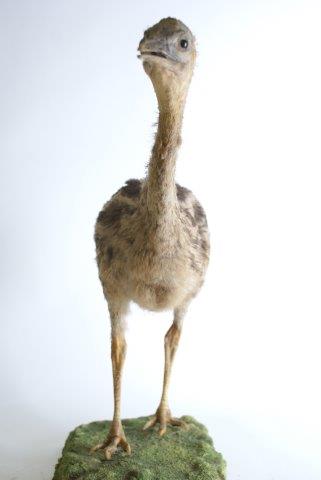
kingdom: Animalia
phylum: Chordata
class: Aves
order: Casuariiformes
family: Casuariidae
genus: Casuarius
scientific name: Casuarius casuarius
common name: Southern cassowary
